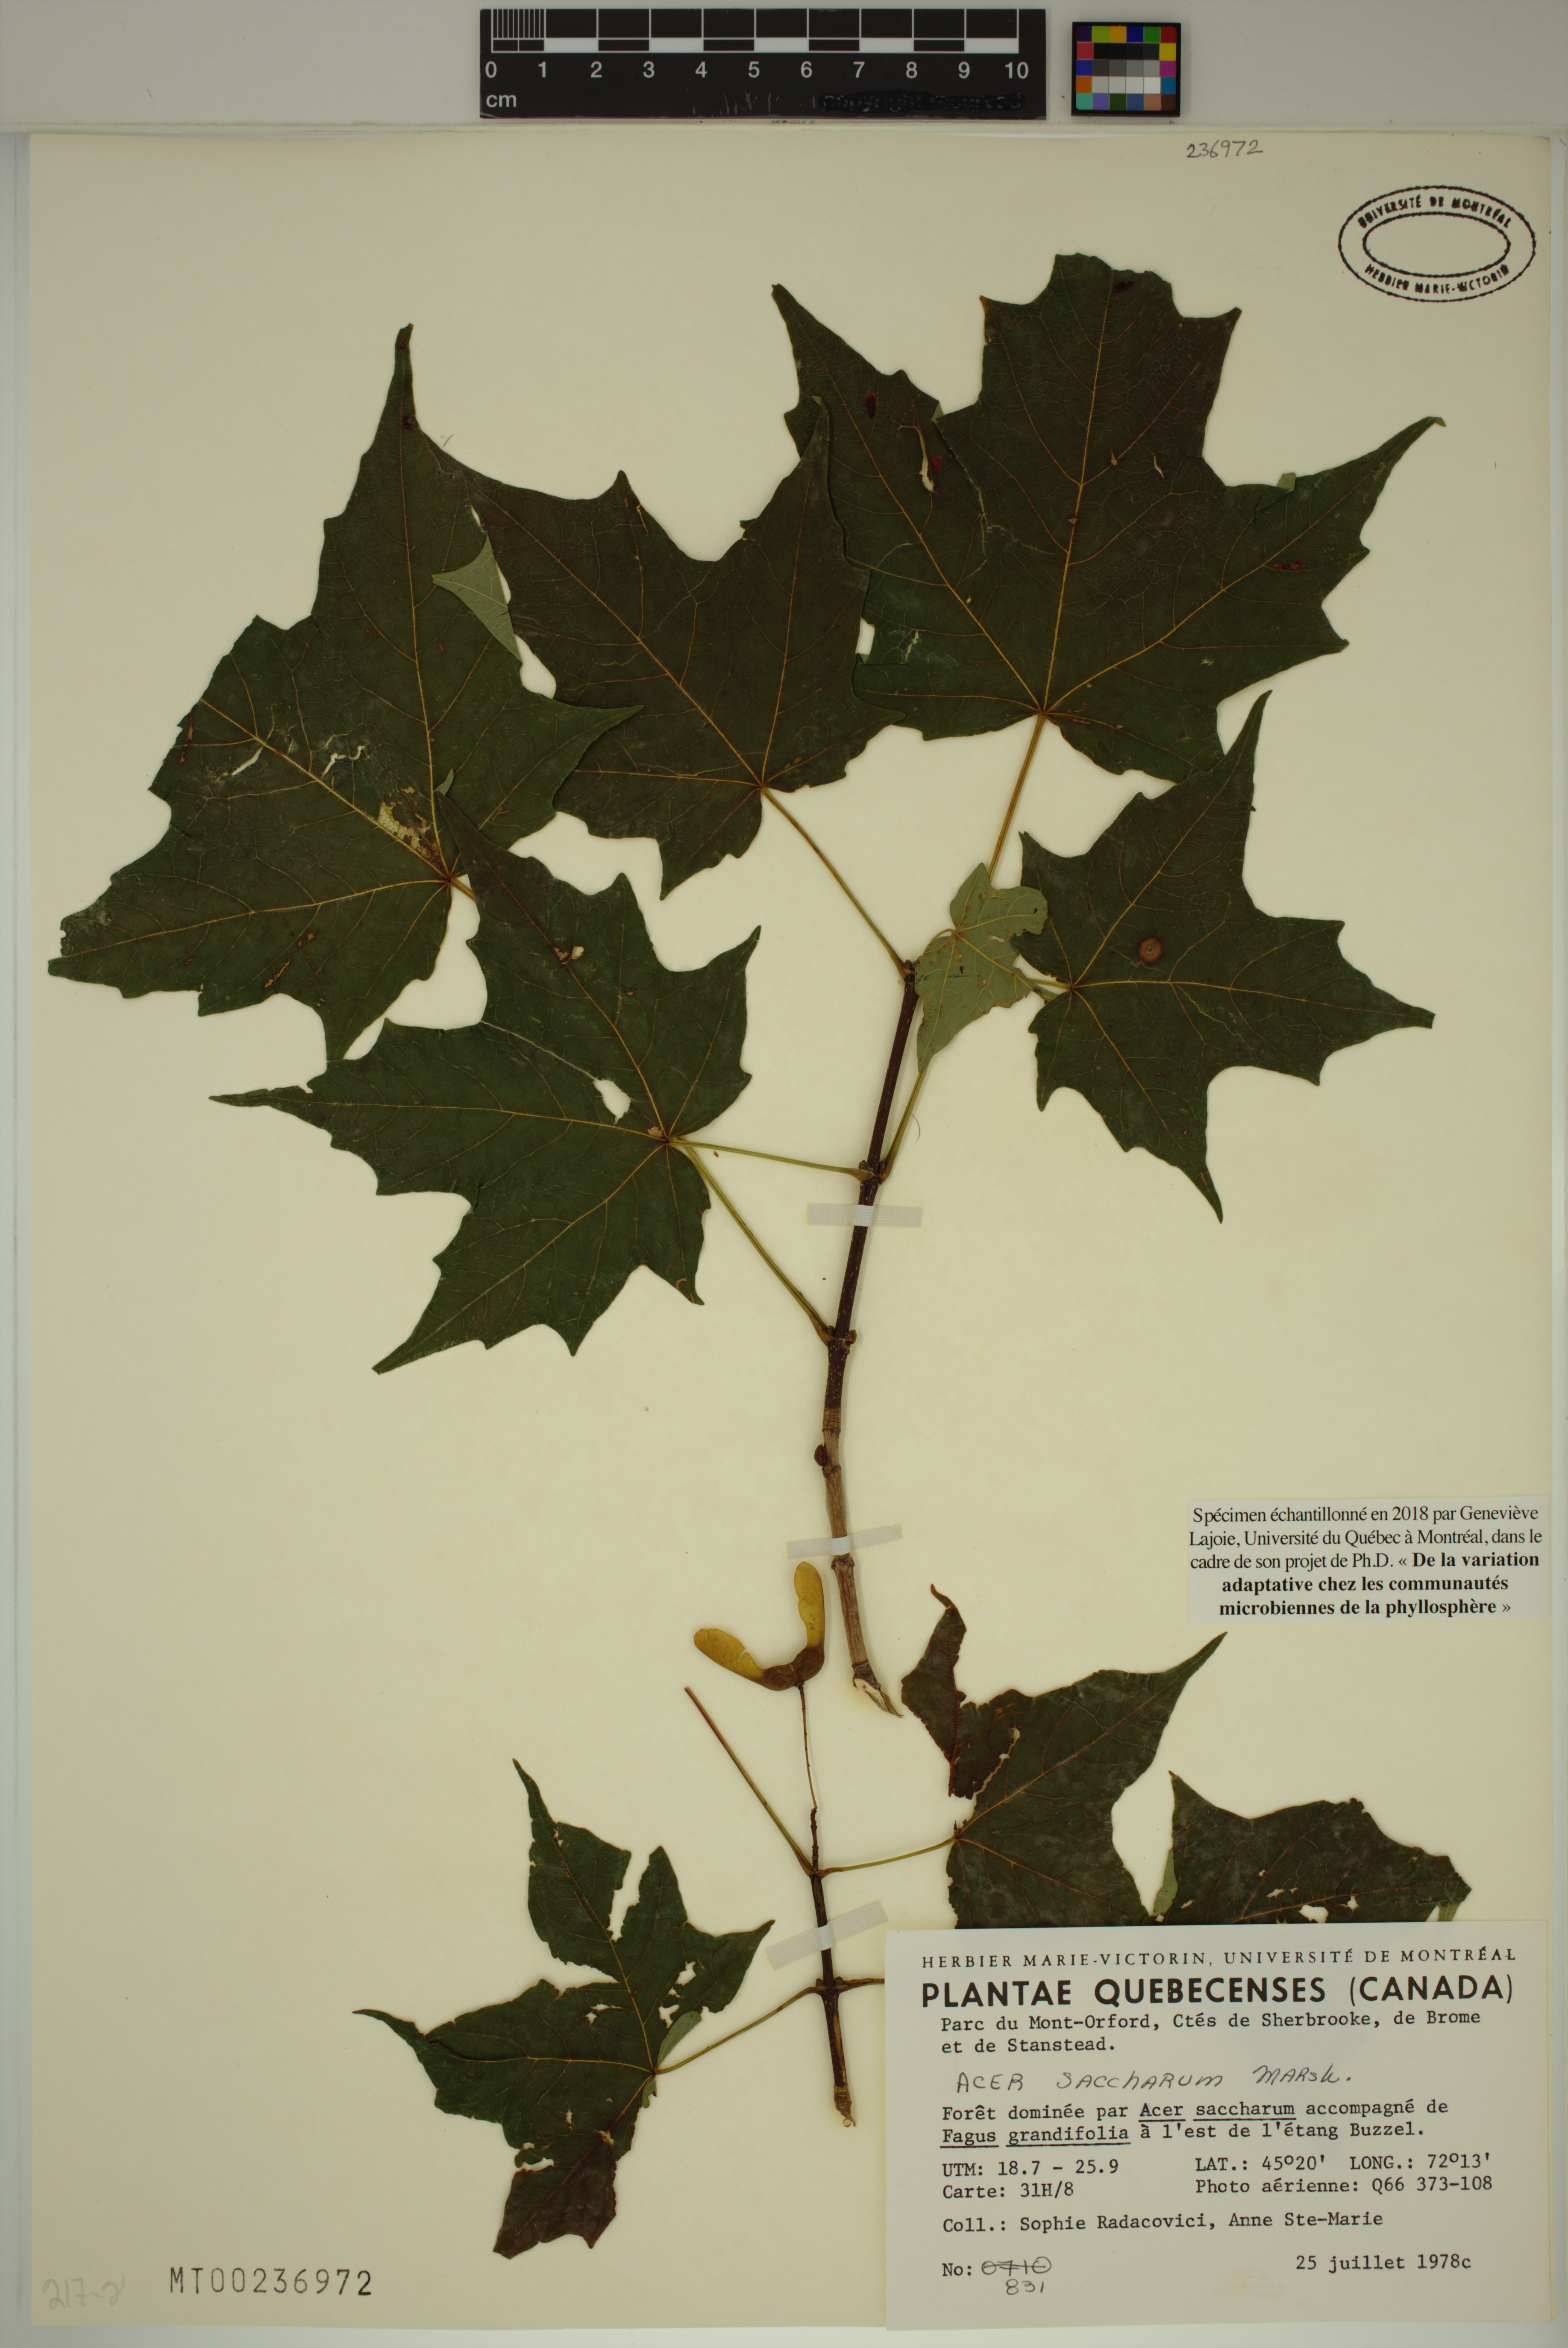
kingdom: Plantae
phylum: Tracheophyta
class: Magnoliopsida
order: Sapindales
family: Sapindaceae
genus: Acer
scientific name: Acer saccharum
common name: Sugar maple
